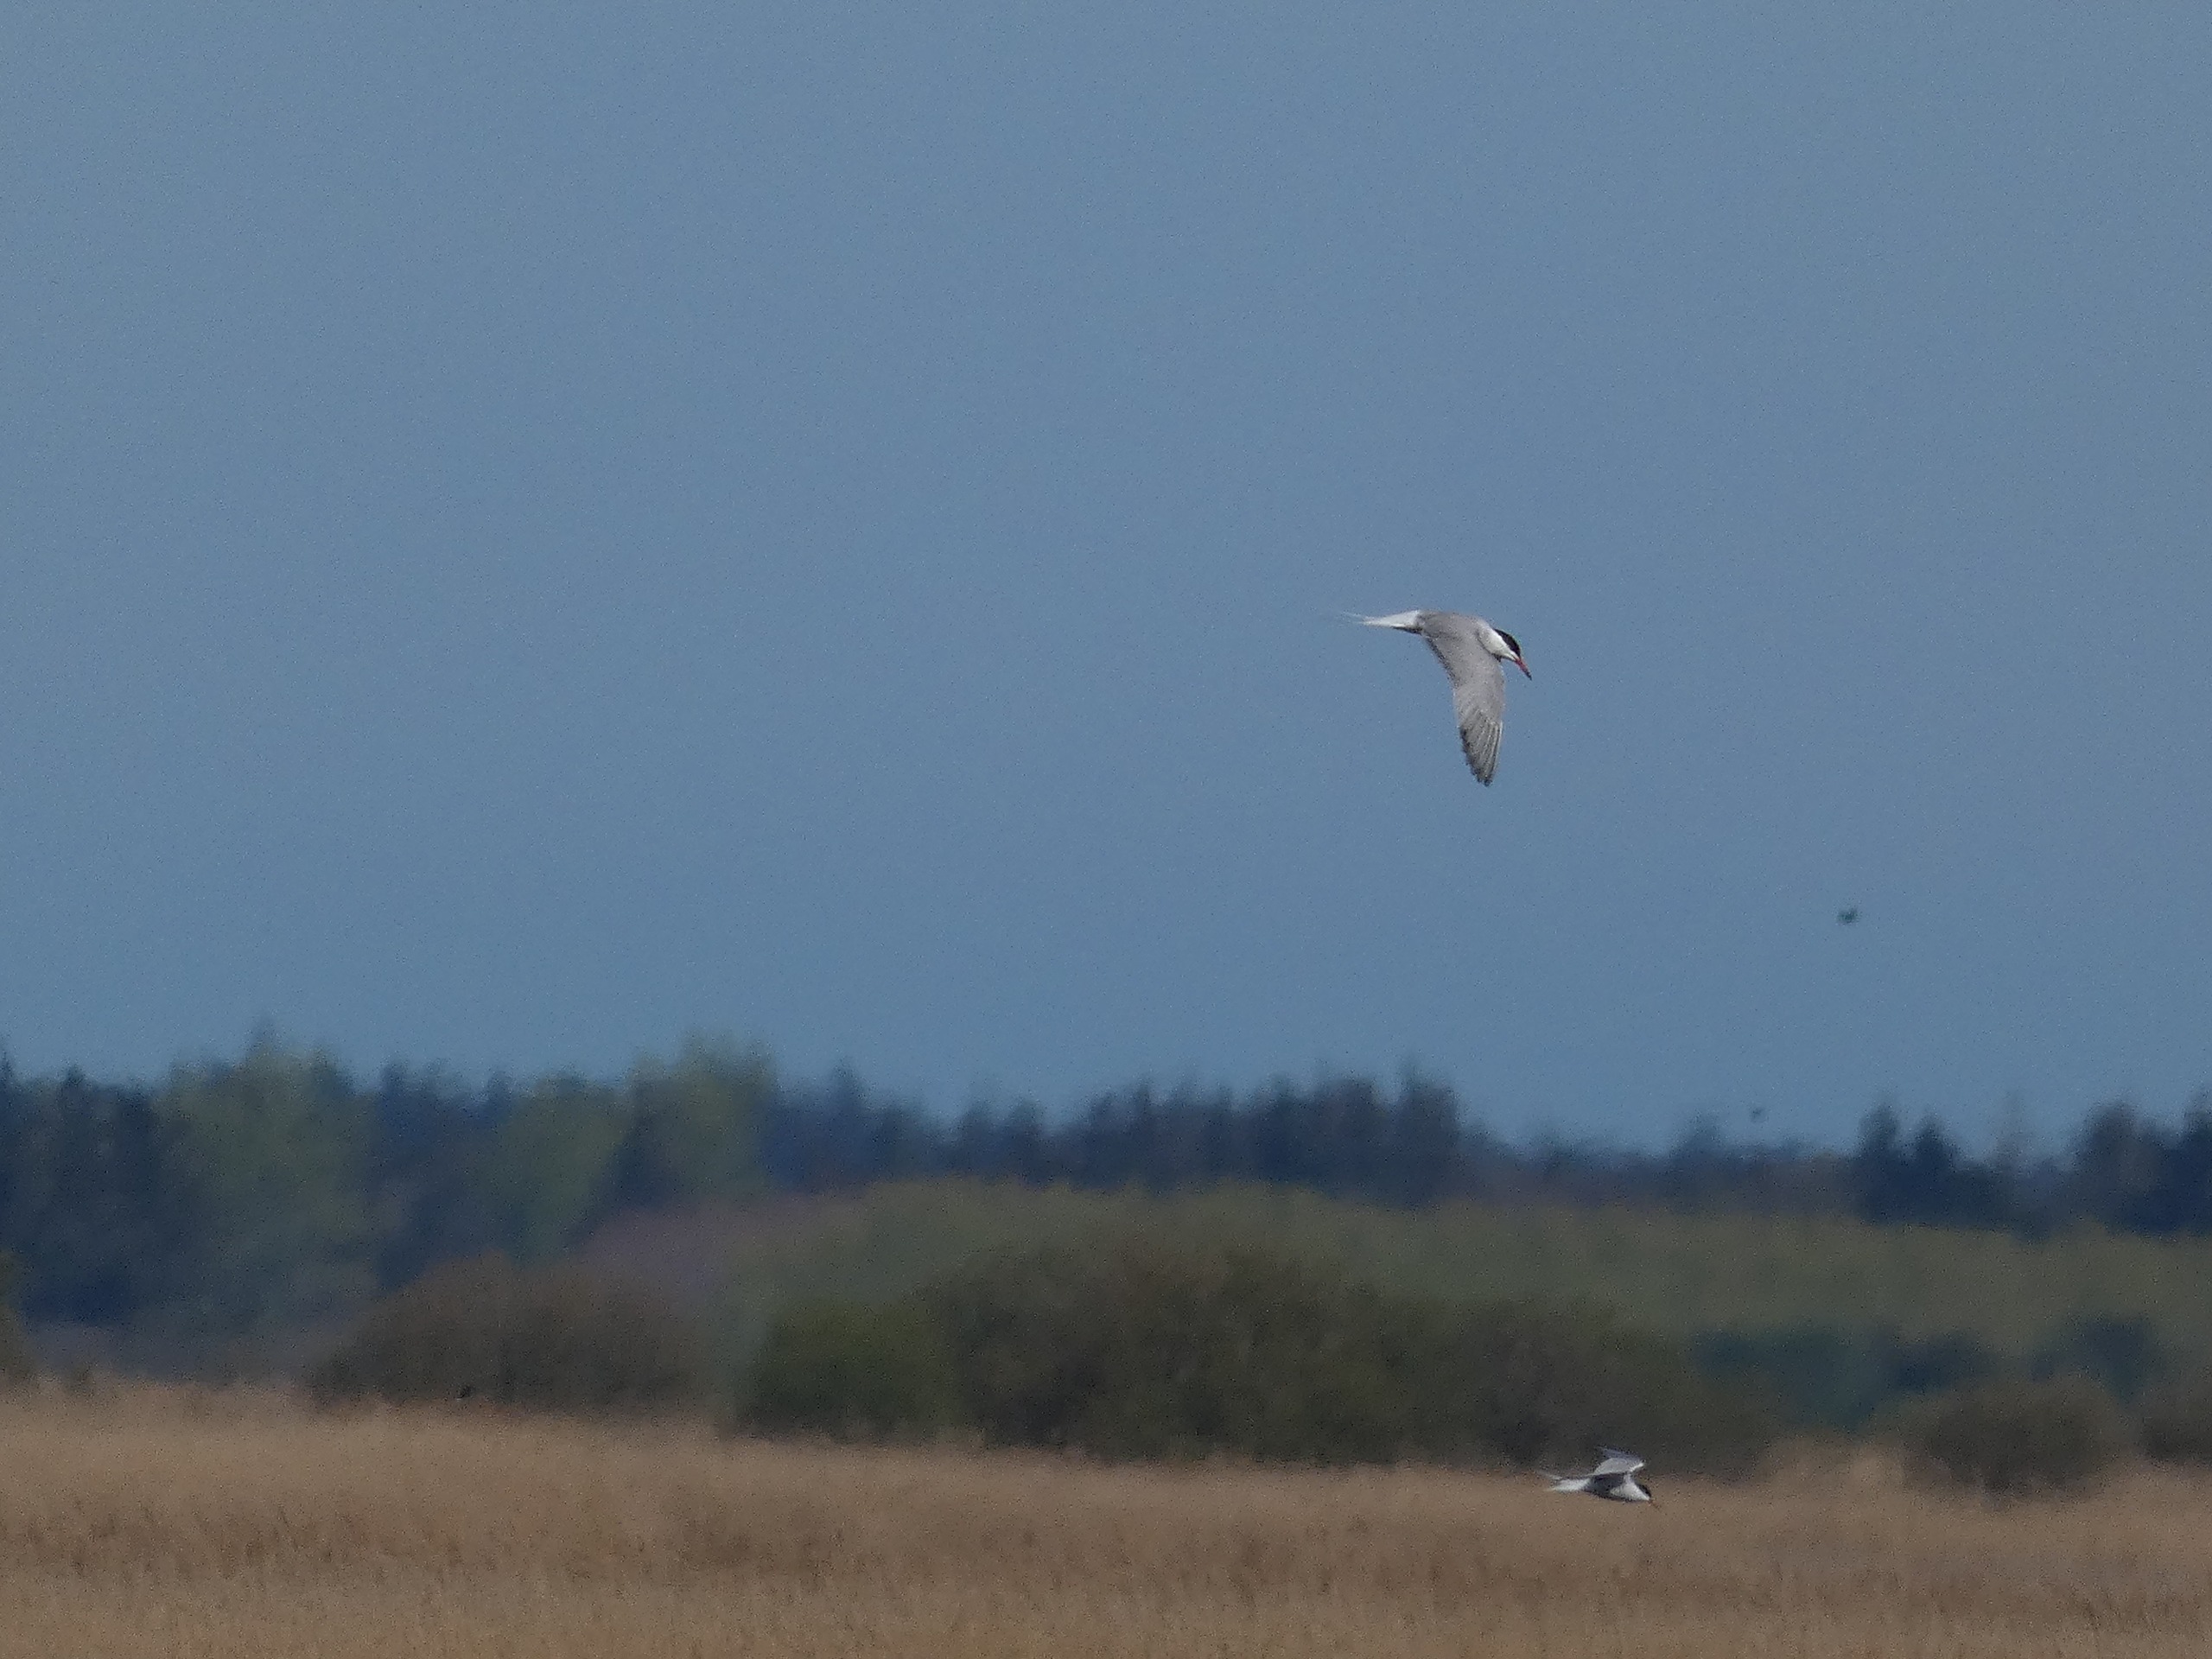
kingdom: Animalia
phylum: Chordata
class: Aves
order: Charadriiformes
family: Laridae
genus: Sterna
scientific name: Sterna hirundo
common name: Fjordterne
